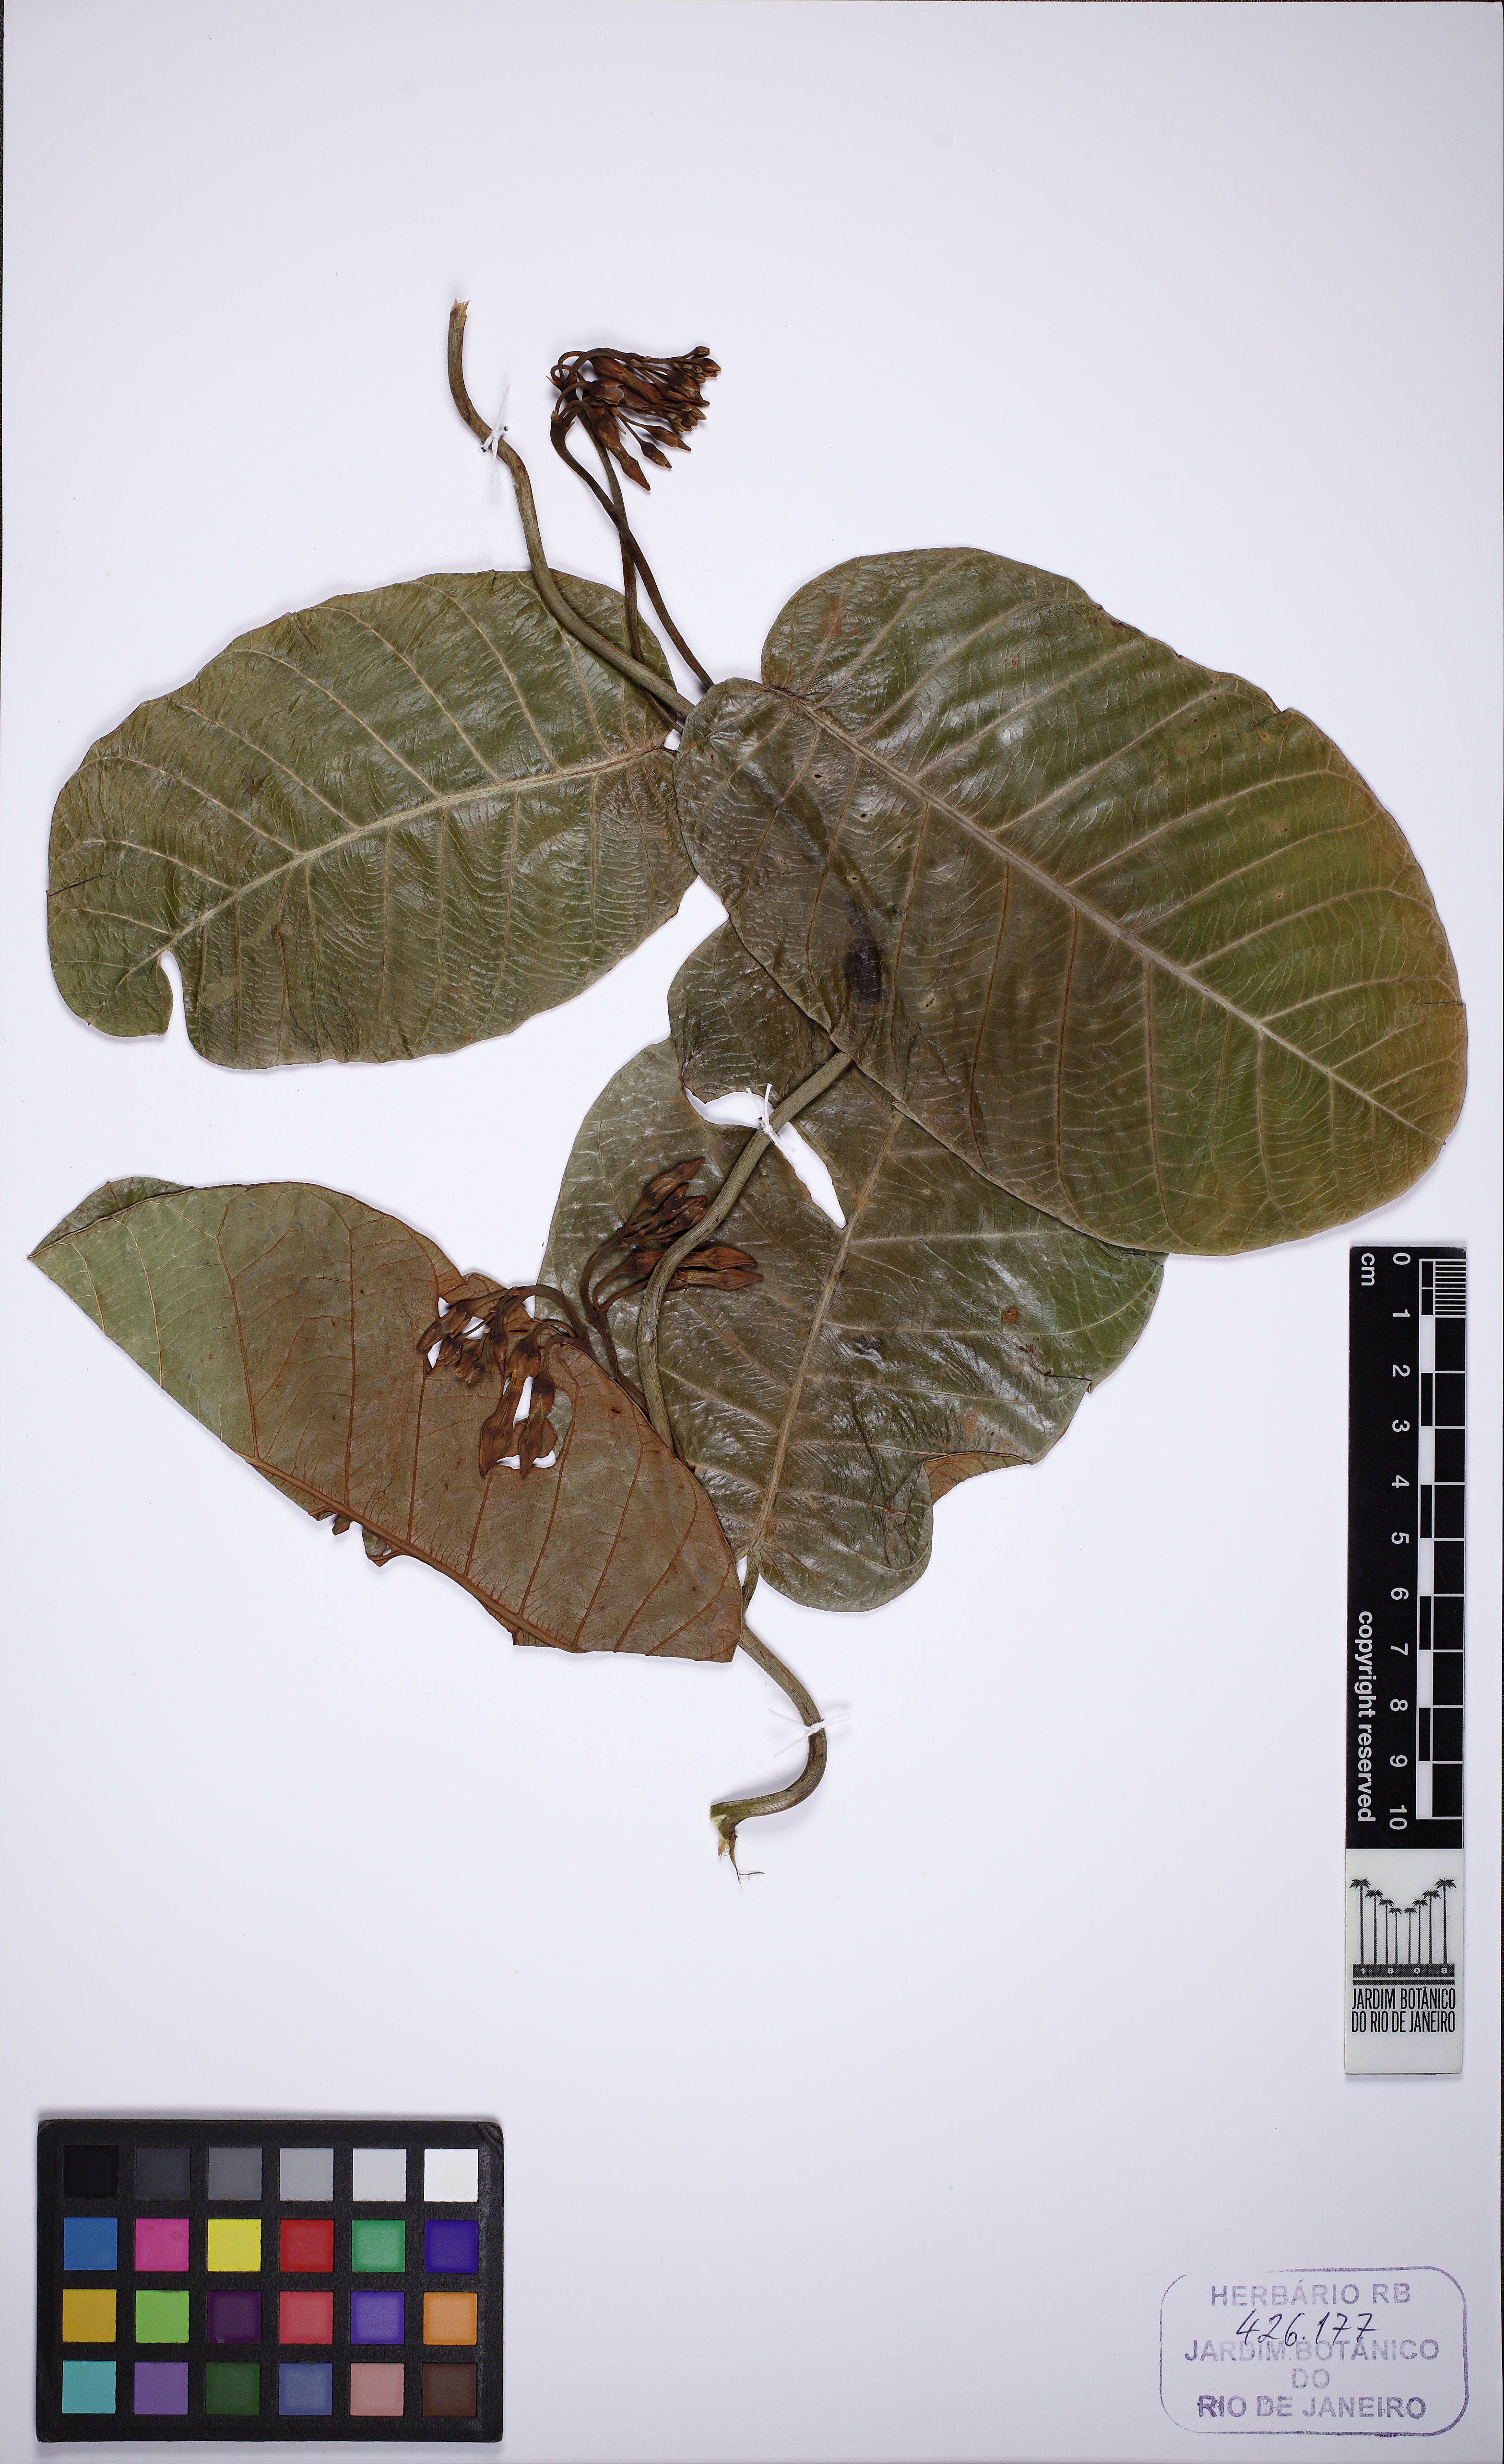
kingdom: Plantae
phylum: Tracheophyta
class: Magnoliopsida
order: Gentianales
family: Apocynaceae
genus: Odontadenia
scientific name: Odontadenia semidigyna
